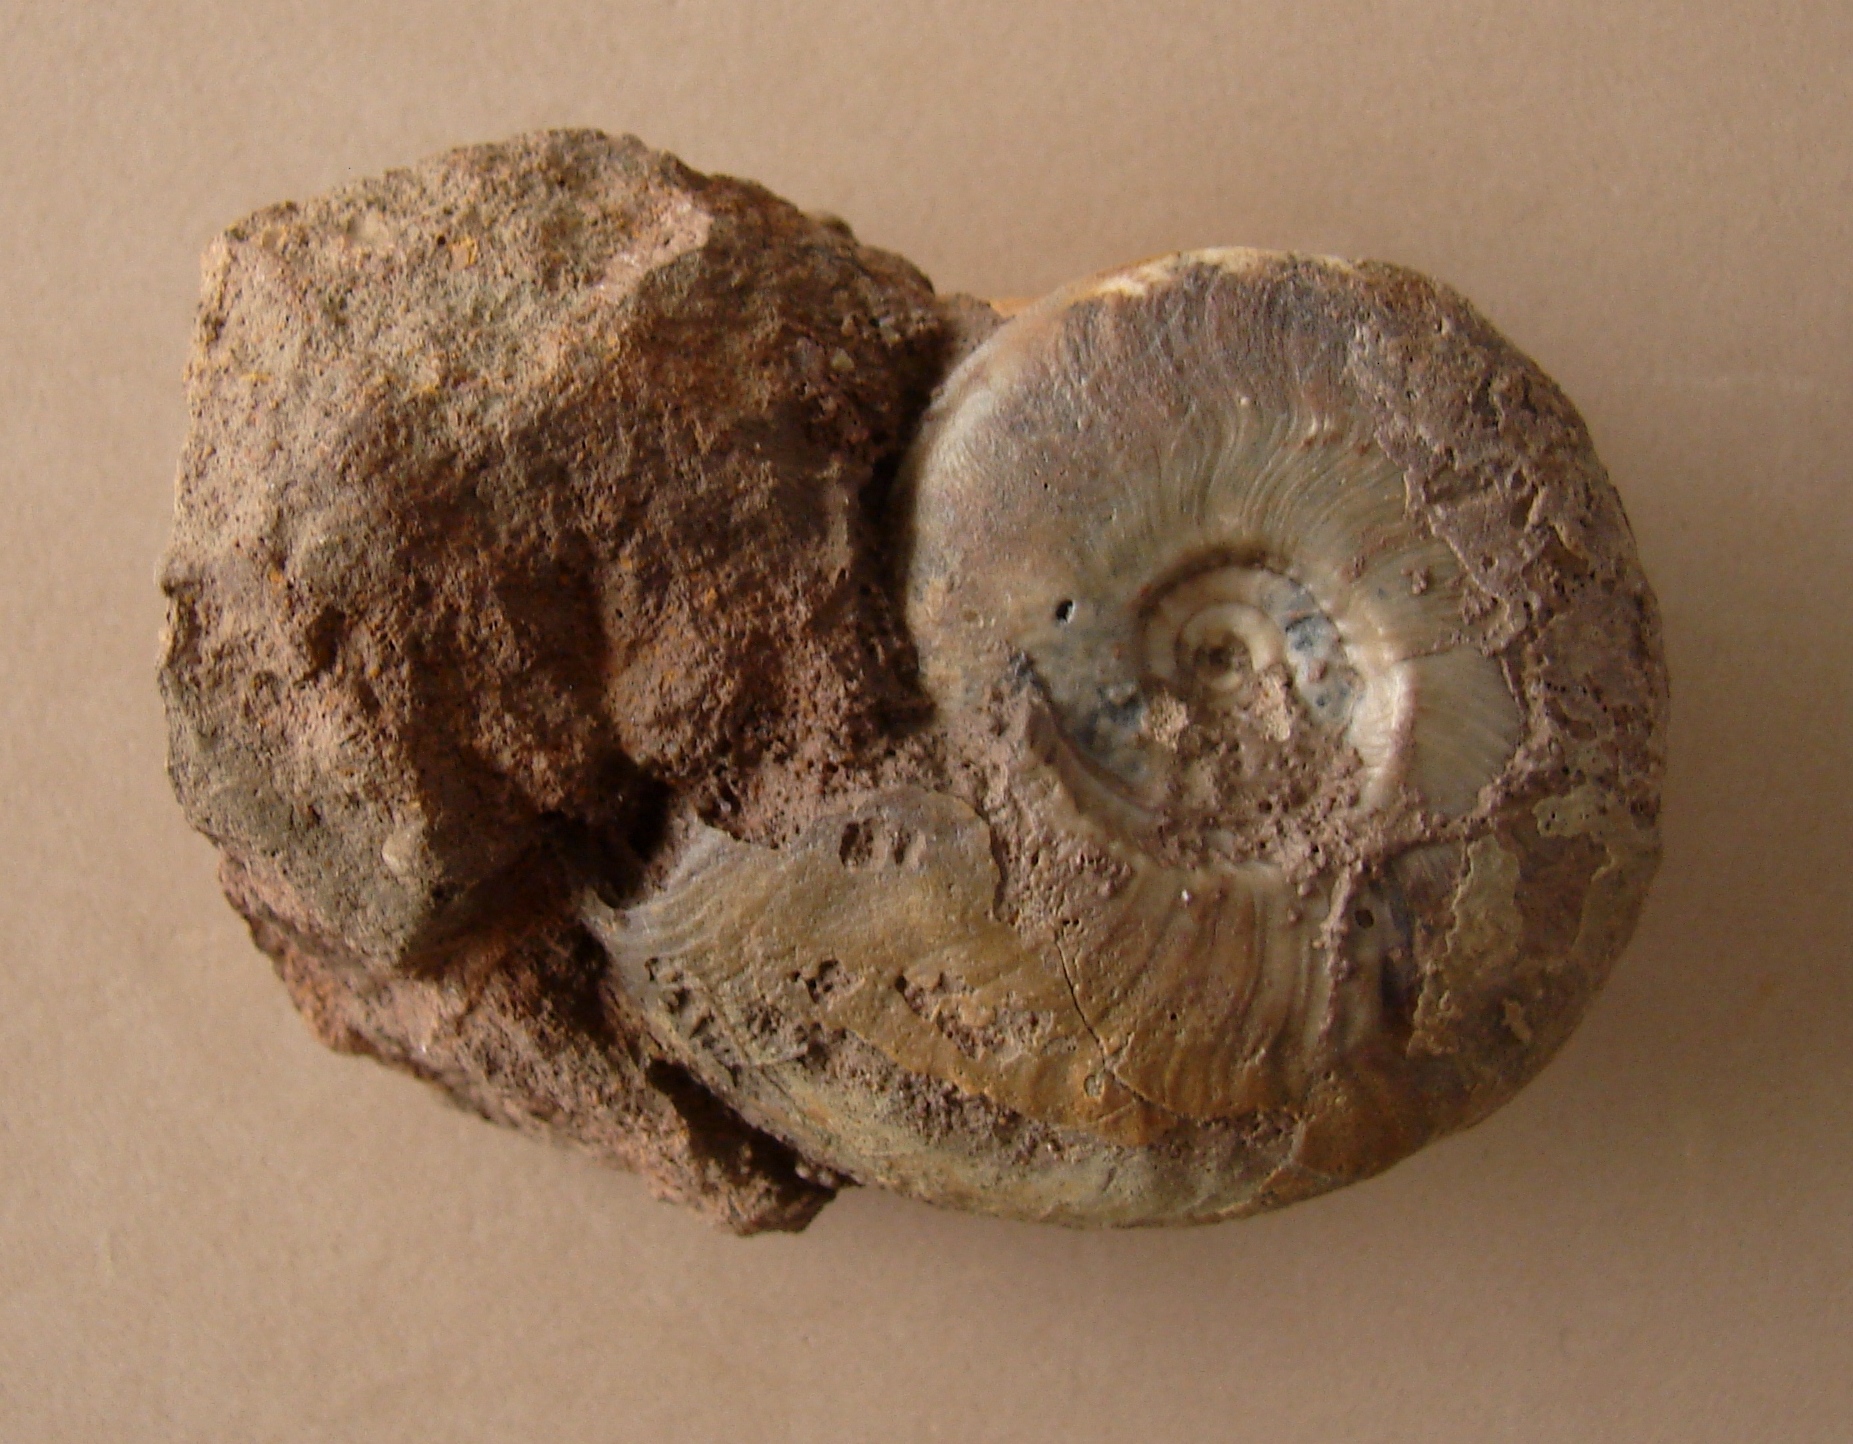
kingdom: Animalia
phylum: Mollusca
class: Cephalopoda
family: Graphoceratidae
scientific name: Graphoceratidae
